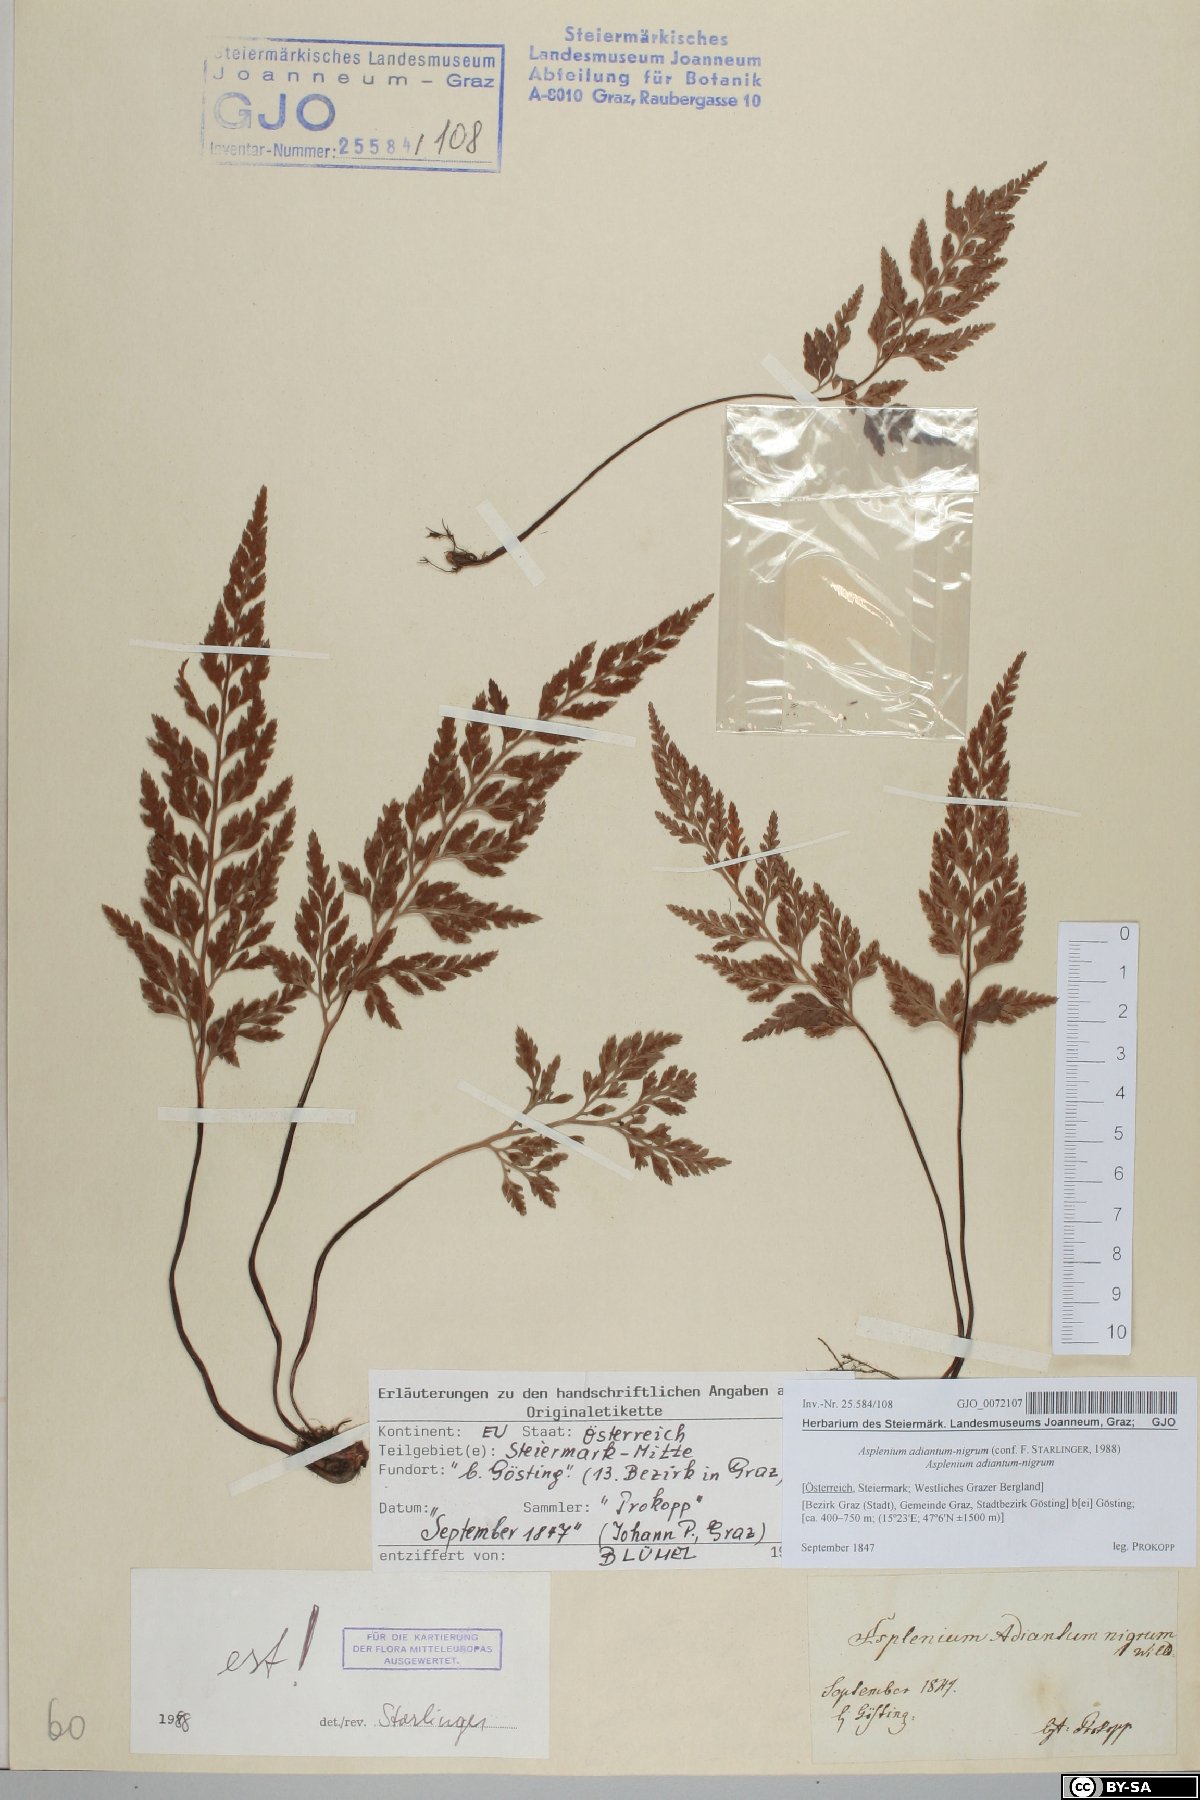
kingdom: Plantae
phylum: Tracheophyta
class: Polypodiopsida
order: Polypodiales
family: Aspleniaceae
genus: Asplenium
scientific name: Asplenium adiantum-nigrum
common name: Black spleenwort
